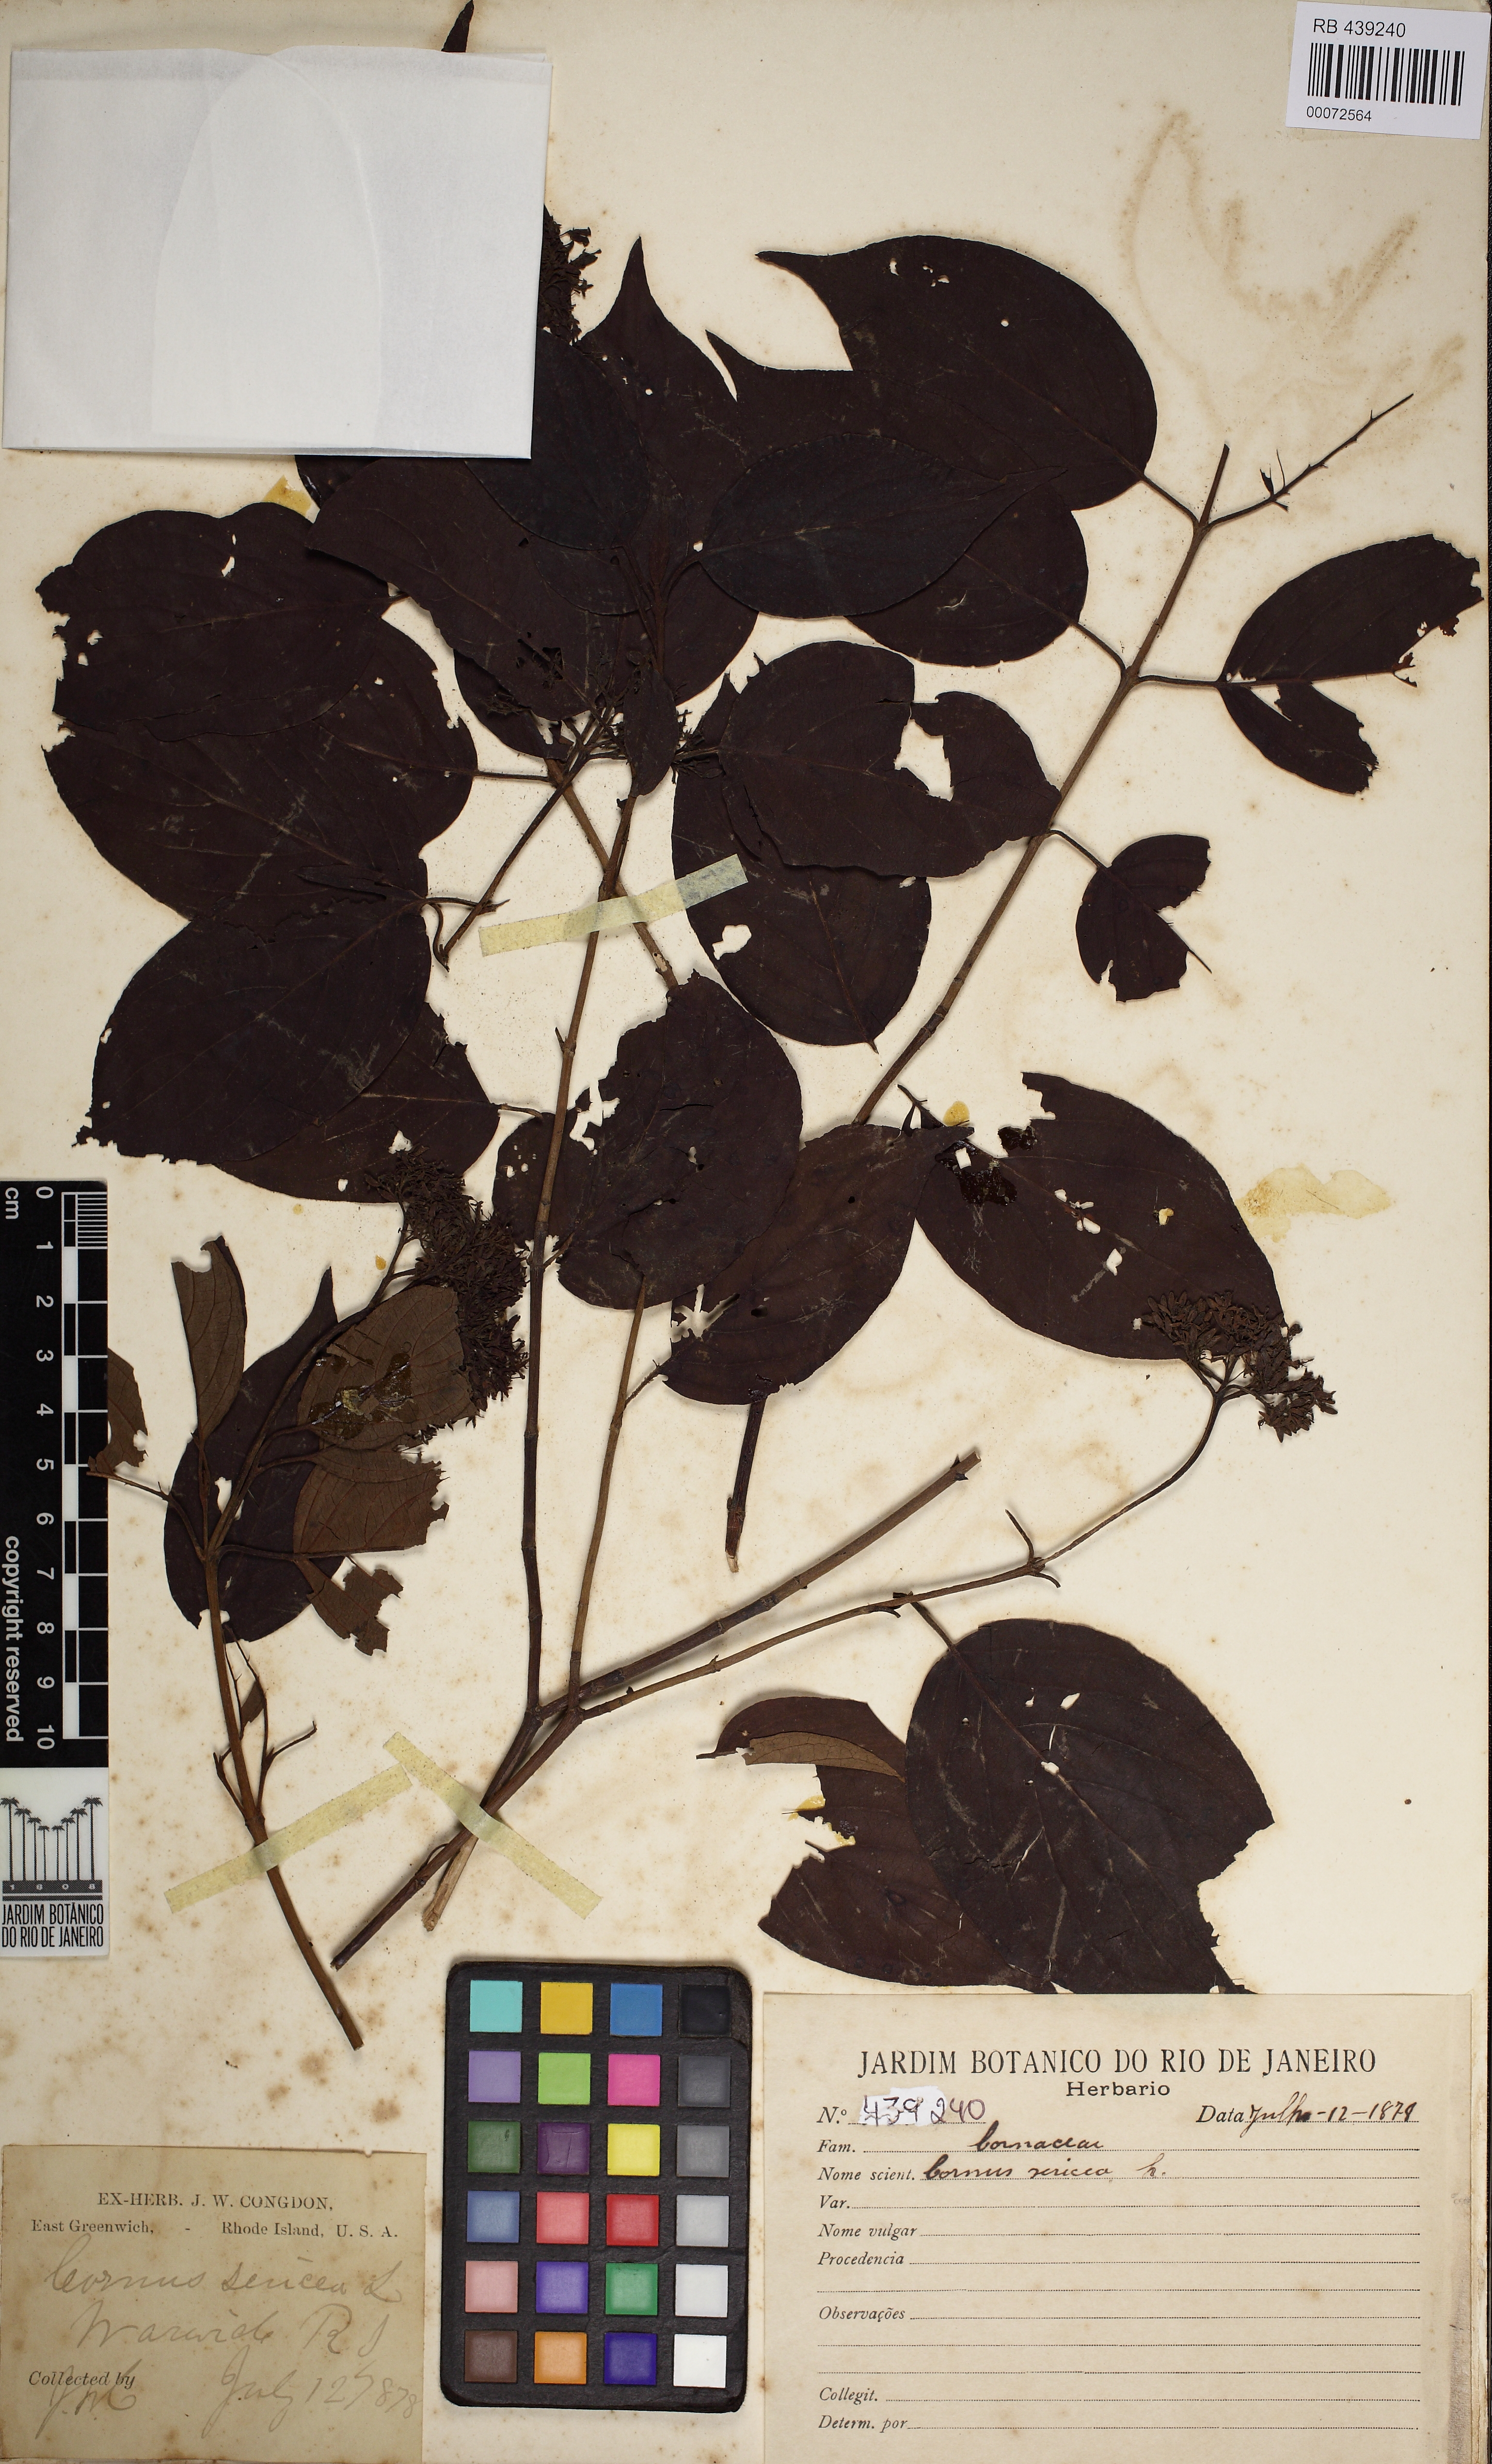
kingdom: Plantae
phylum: Tracheophyta
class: Magnoliopsida
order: Cornales
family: Cornaceae
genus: Cornus
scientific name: Cornus sericea
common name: Red-osier dogwood
